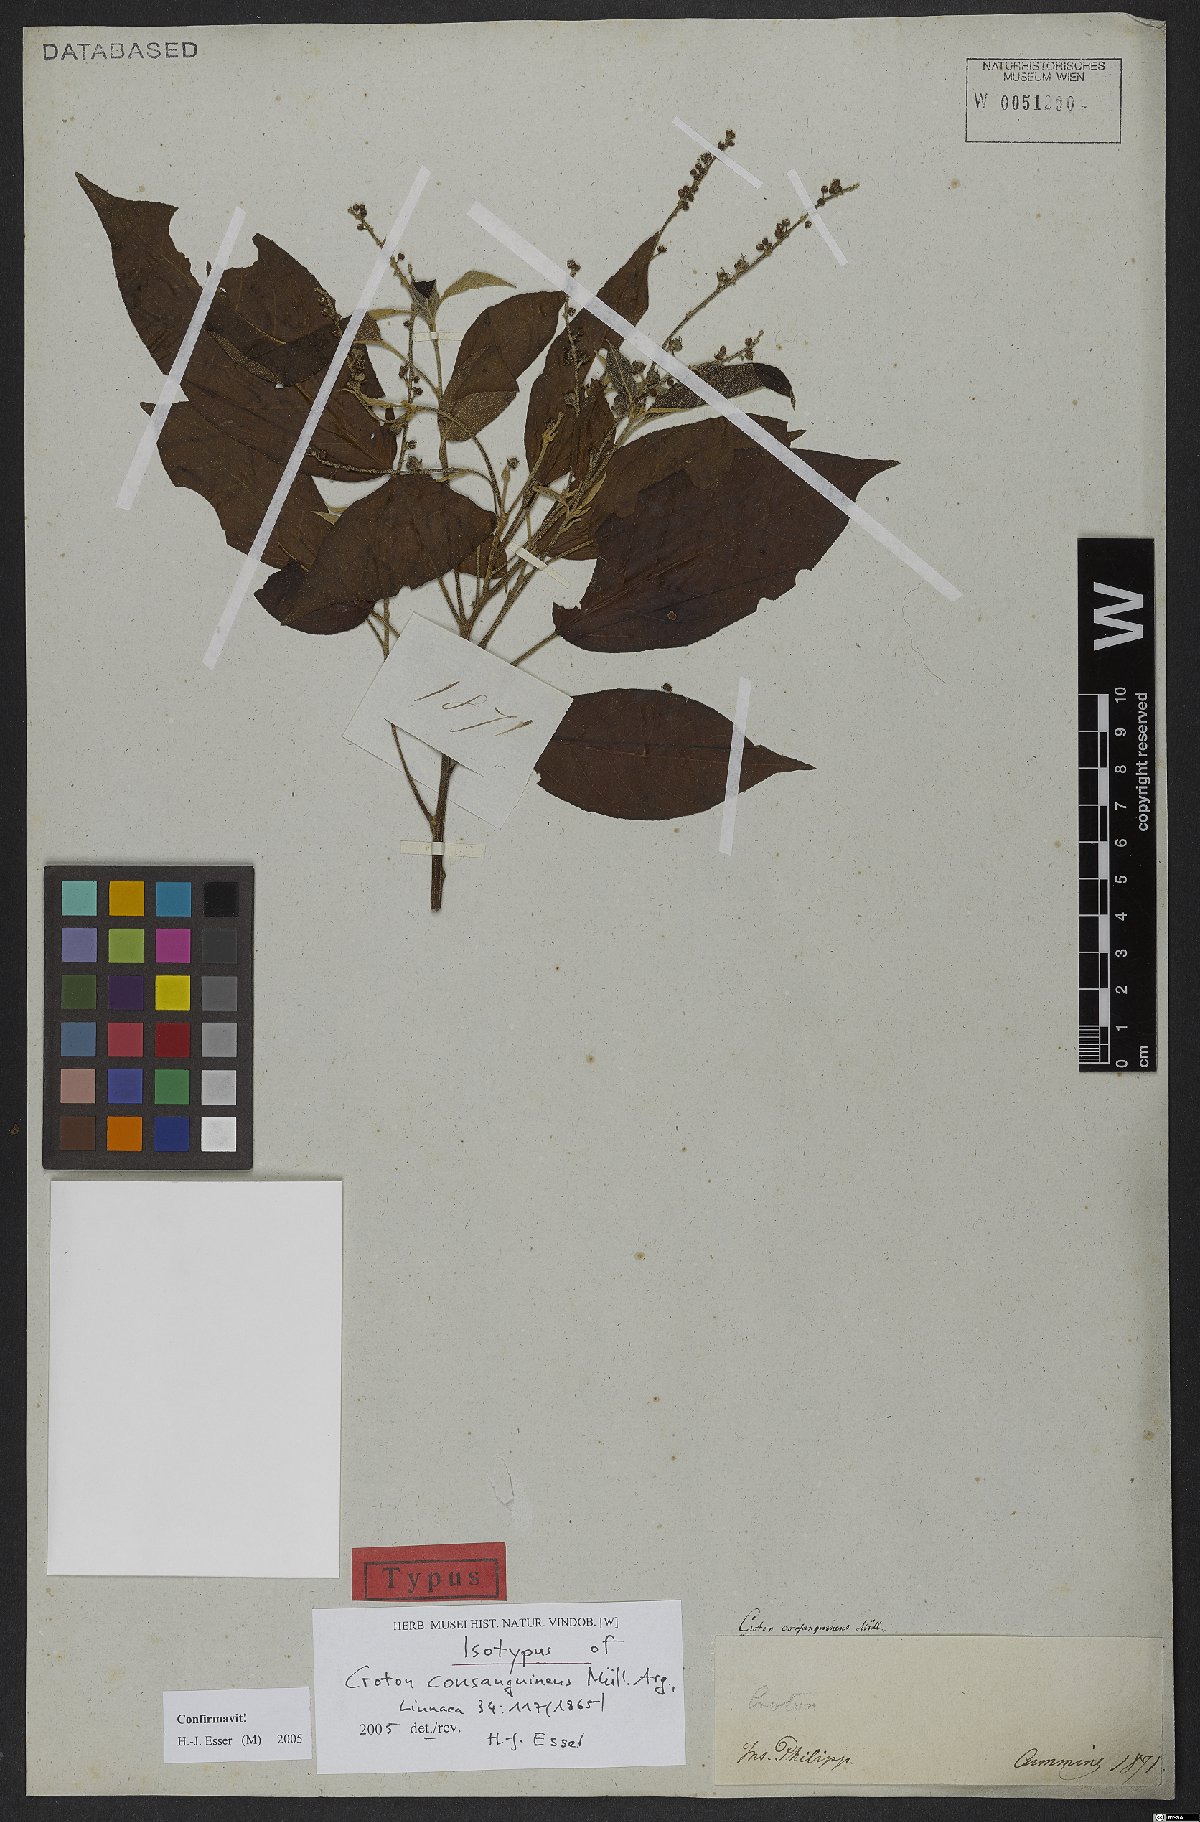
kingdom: Plantae
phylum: Tracheophyta
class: Magnoliopsida
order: Malpighiales
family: Euphorbiaceae
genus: Croton
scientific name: Croton consanguineus
